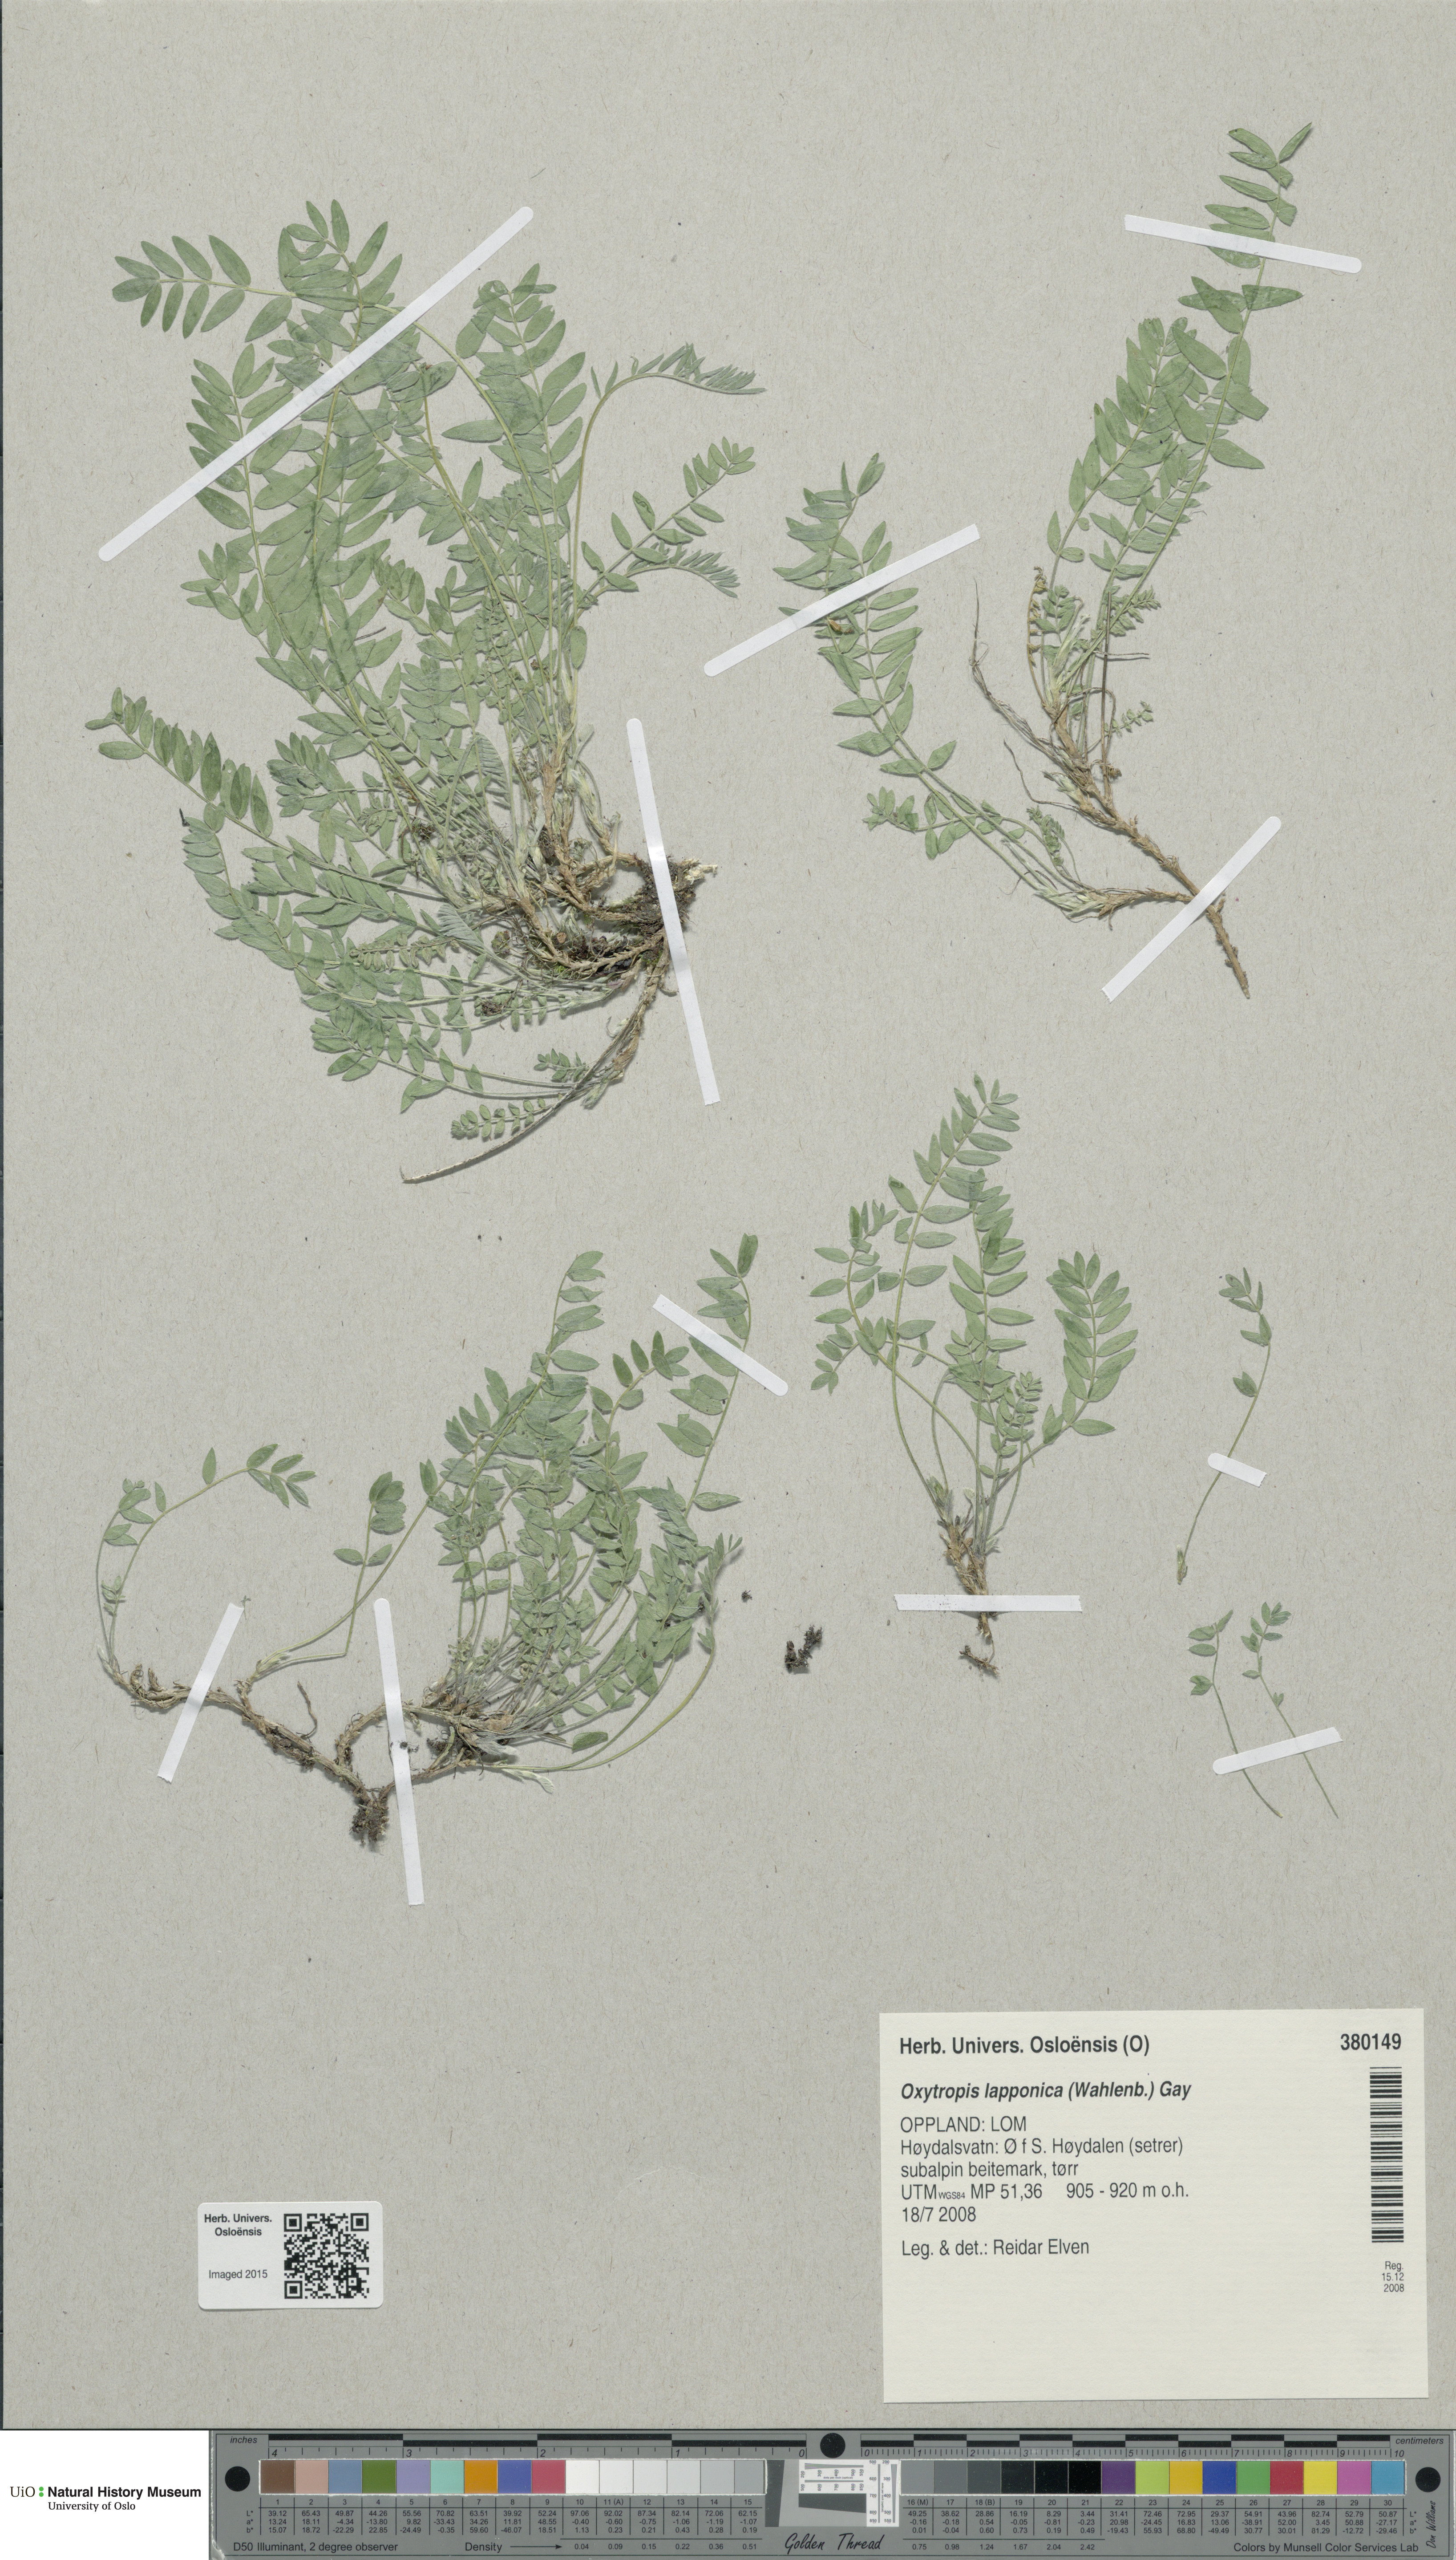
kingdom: Plantae
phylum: Tracheophyta
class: Magnoliopsida
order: Fabales
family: Fabaceae
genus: Oxytropis
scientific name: Oxytropis lapponica
